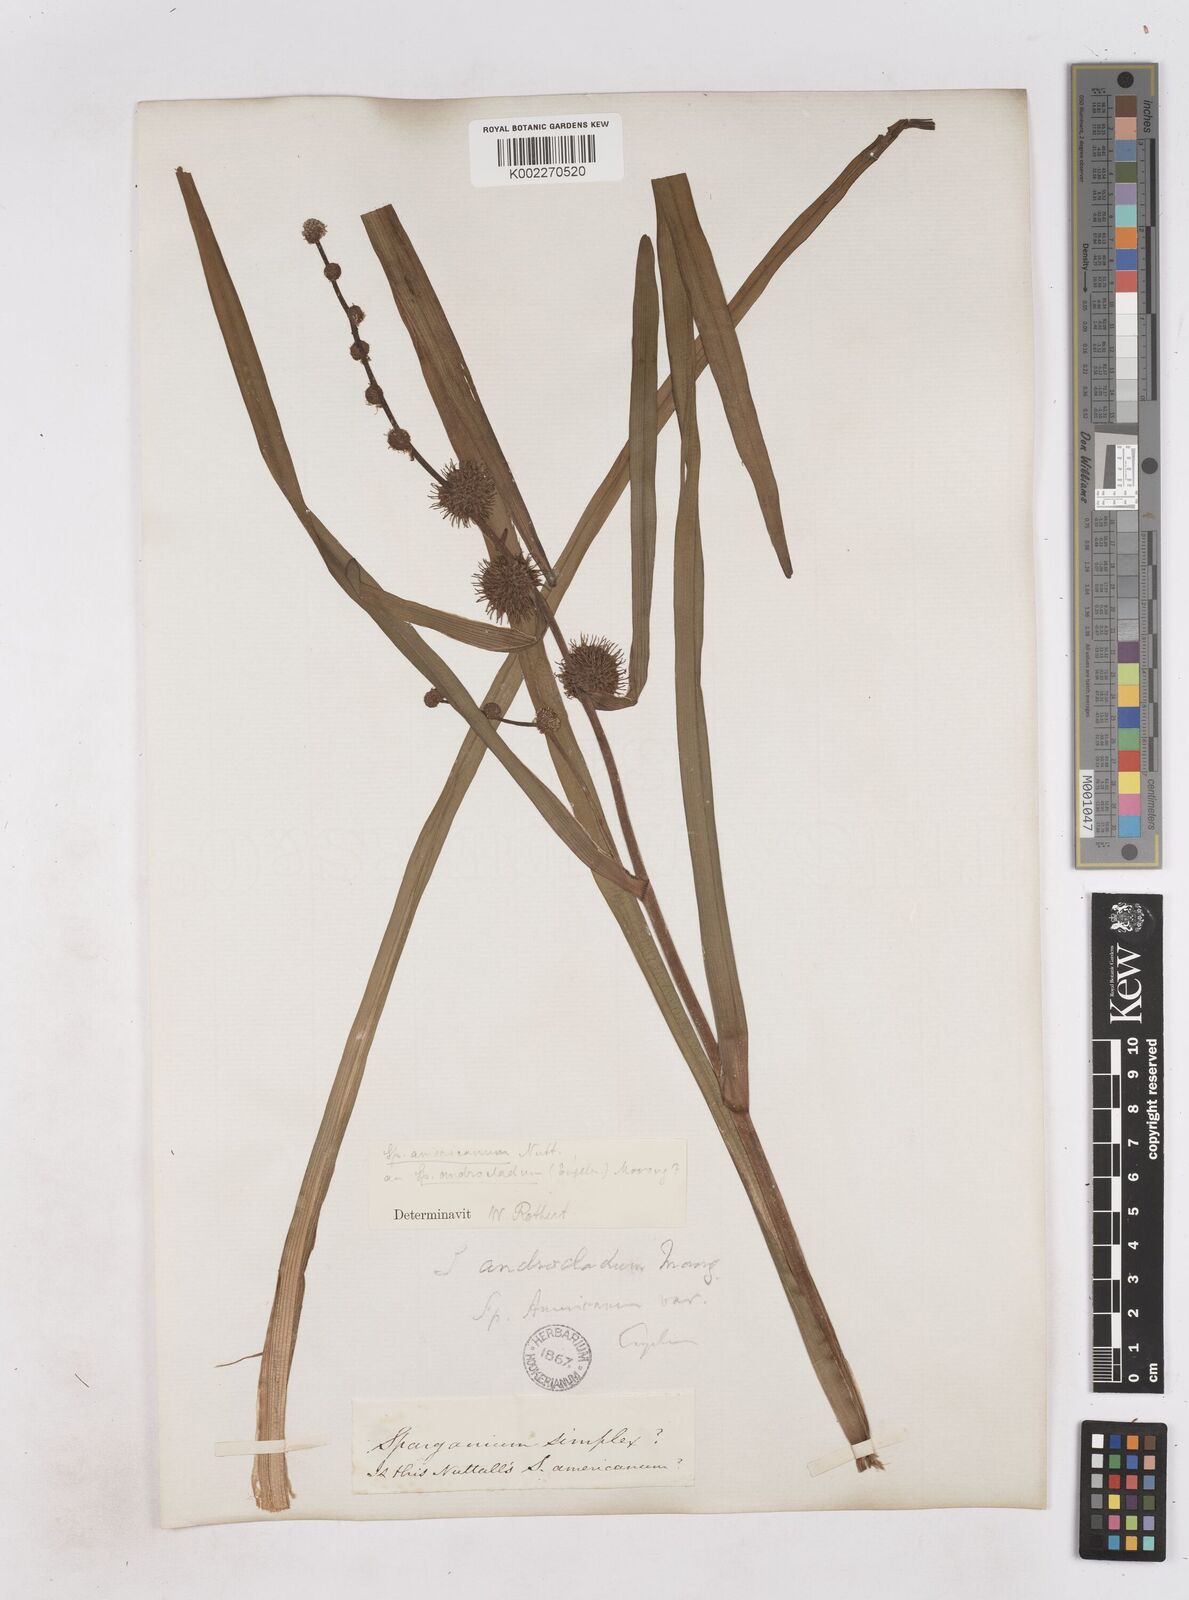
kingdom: Plantae
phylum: Tracheophyta
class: Liliopsida
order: Poales
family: Typhaceae
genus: Sparganium
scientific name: Sparganium americanum
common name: American burreed
